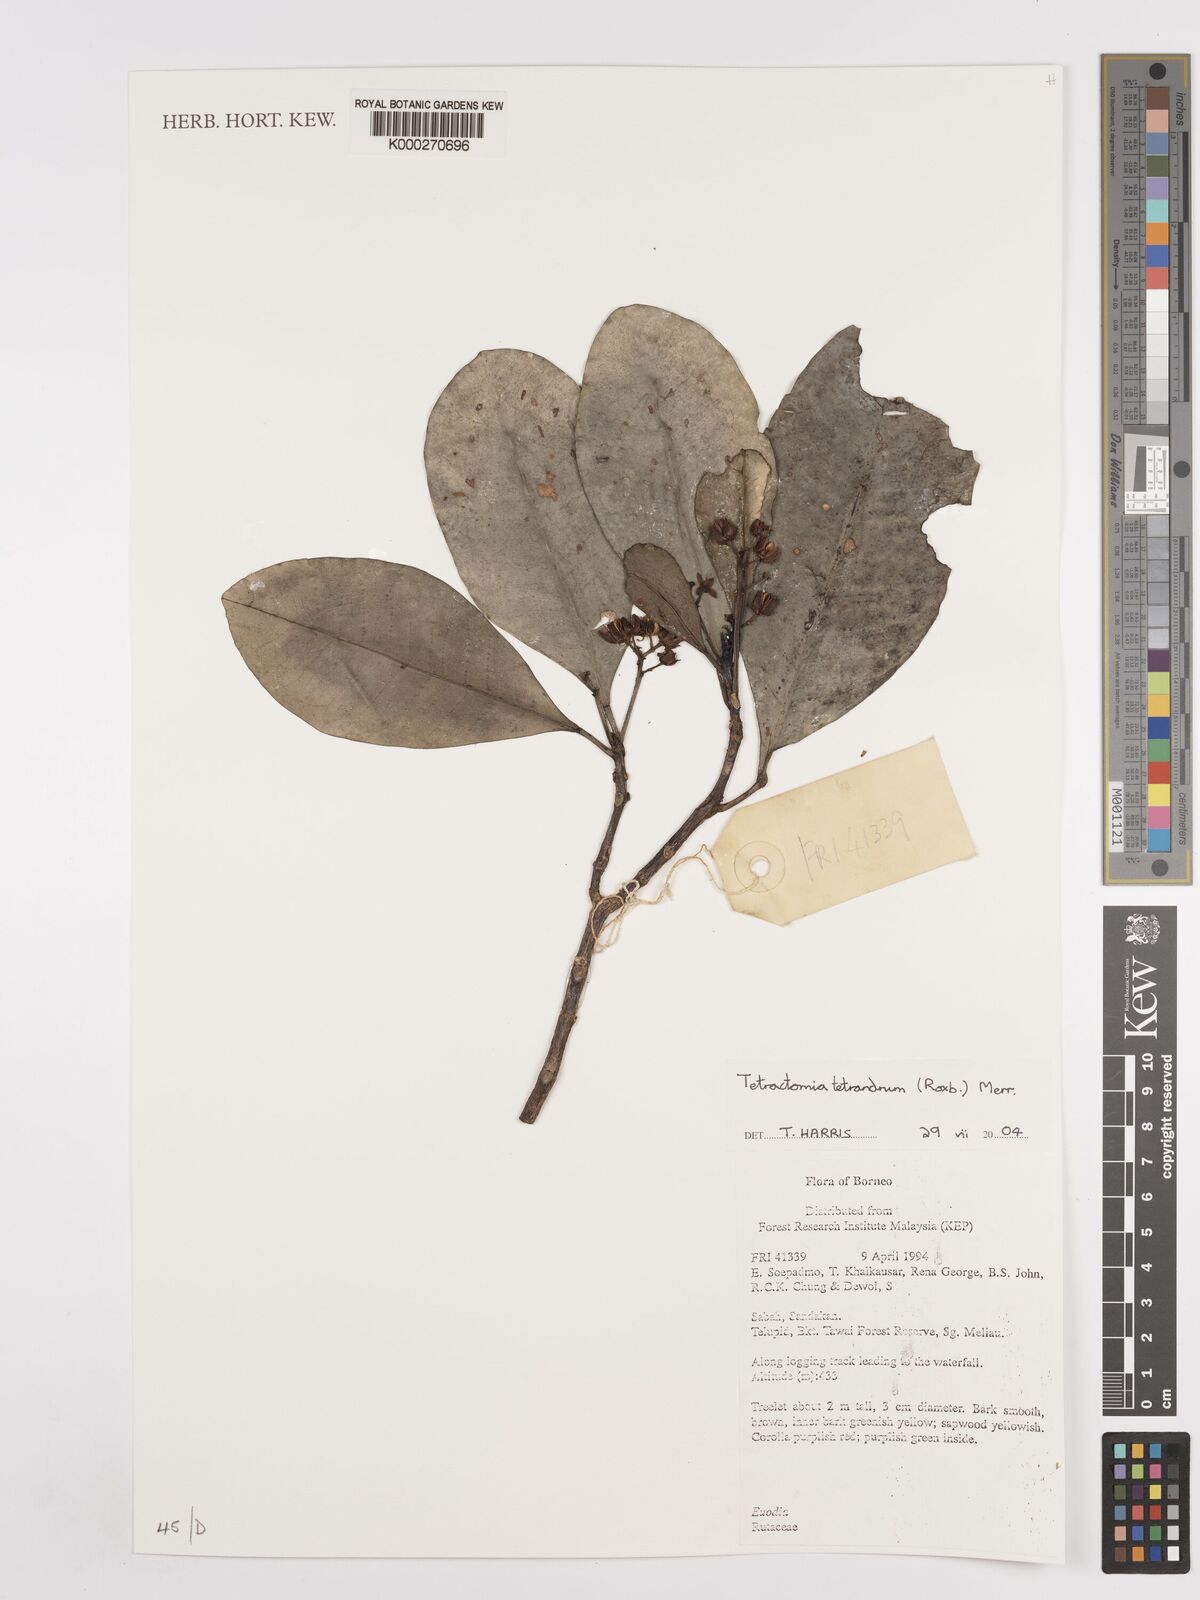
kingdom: Plantae
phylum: Tracheophyta
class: Magnoliopsida
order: Sapindales
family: Rutaceae
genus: Tetractomia
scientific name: Tetractomia tetrandra
